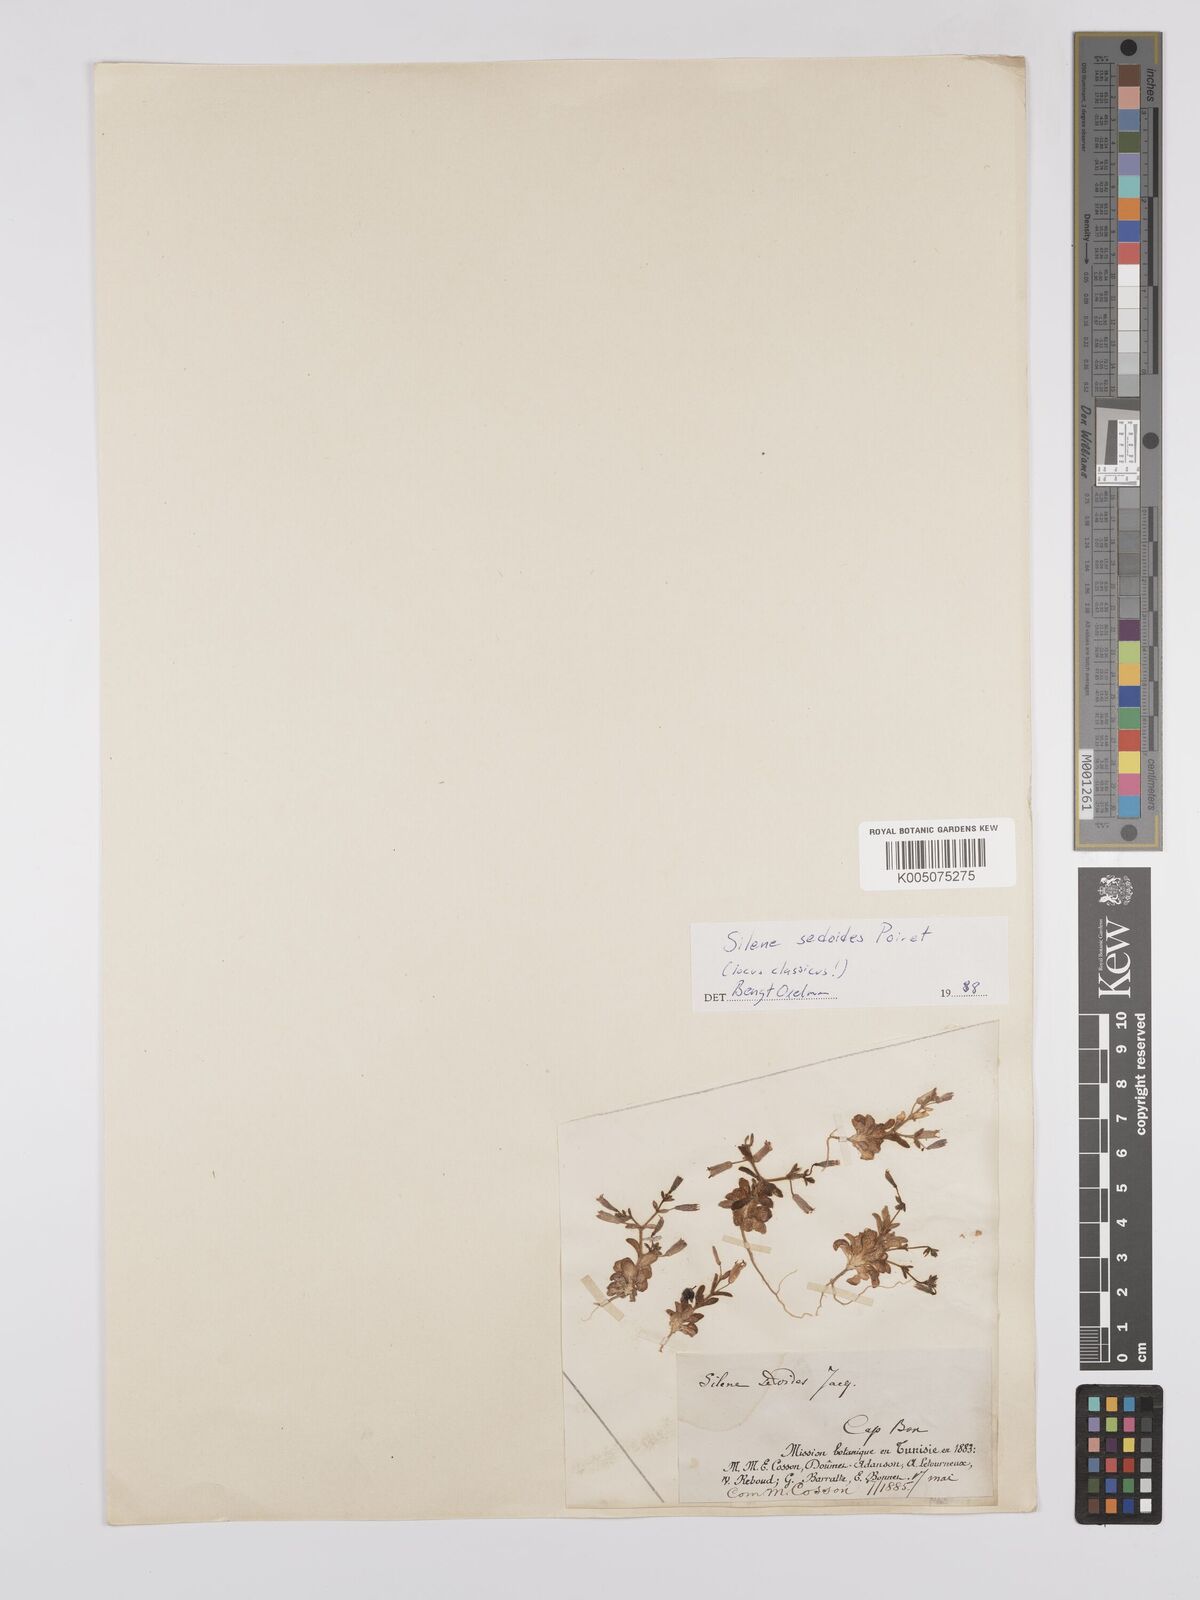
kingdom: Plantae
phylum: Tracheophyta
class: Magnoliopsida
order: Caryophyllales
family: Caryophyllaceae
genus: Silene
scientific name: Silene
